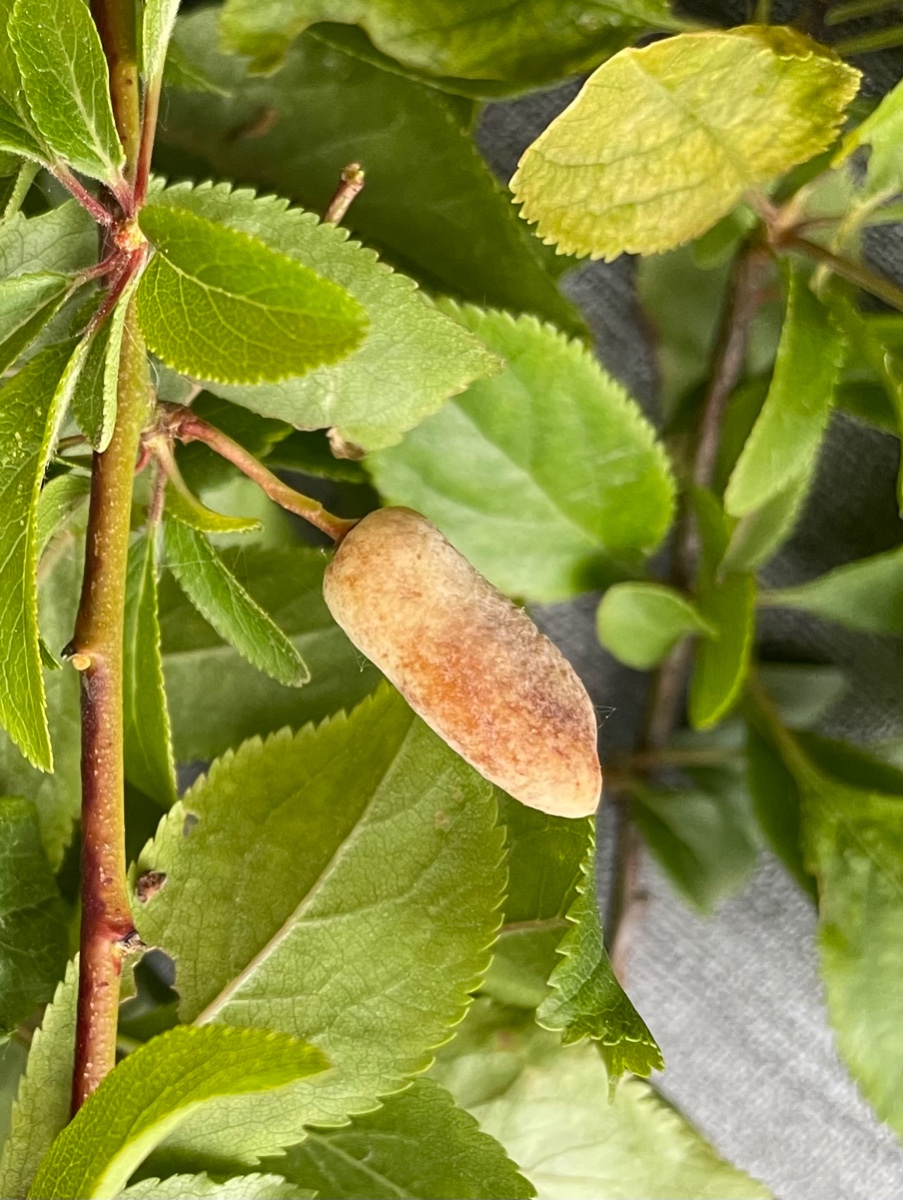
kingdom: Fungi
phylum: Ascomycota
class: Taphrinomycetes
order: Taphrinales
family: Taphrinaceae
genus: Taphrina
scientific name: Taphrina pruni
